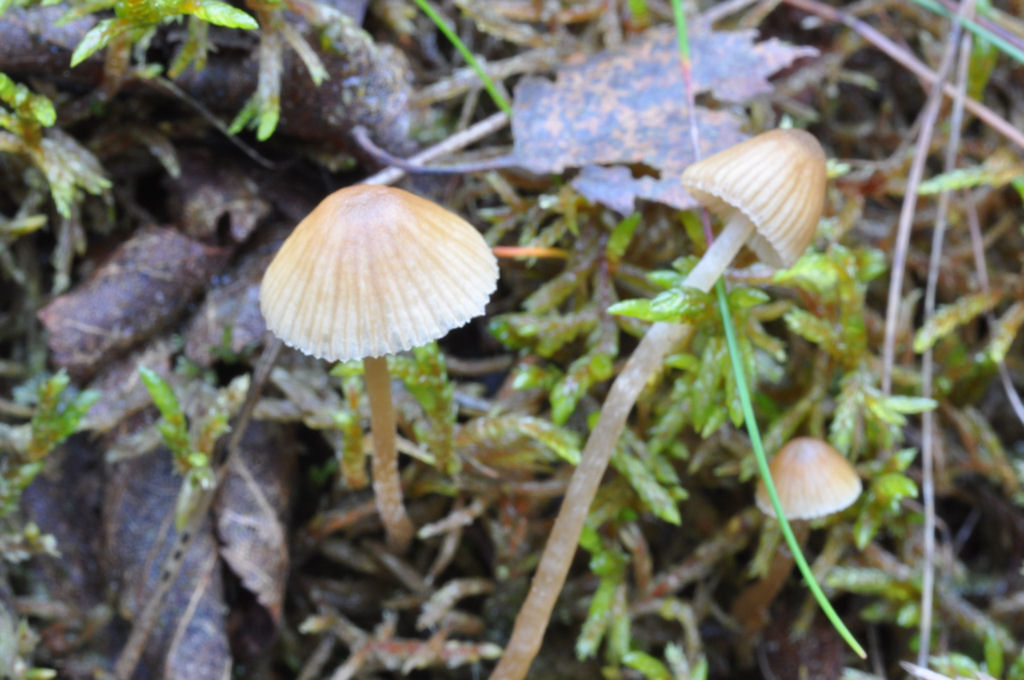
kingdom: Fungi
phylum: Basidiomycota
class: Agaricomycetes
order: Agaricales
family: Hymenogastraceae
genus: Galerina
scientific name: Galerina cephalotricha
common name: hede-hjelmhat
